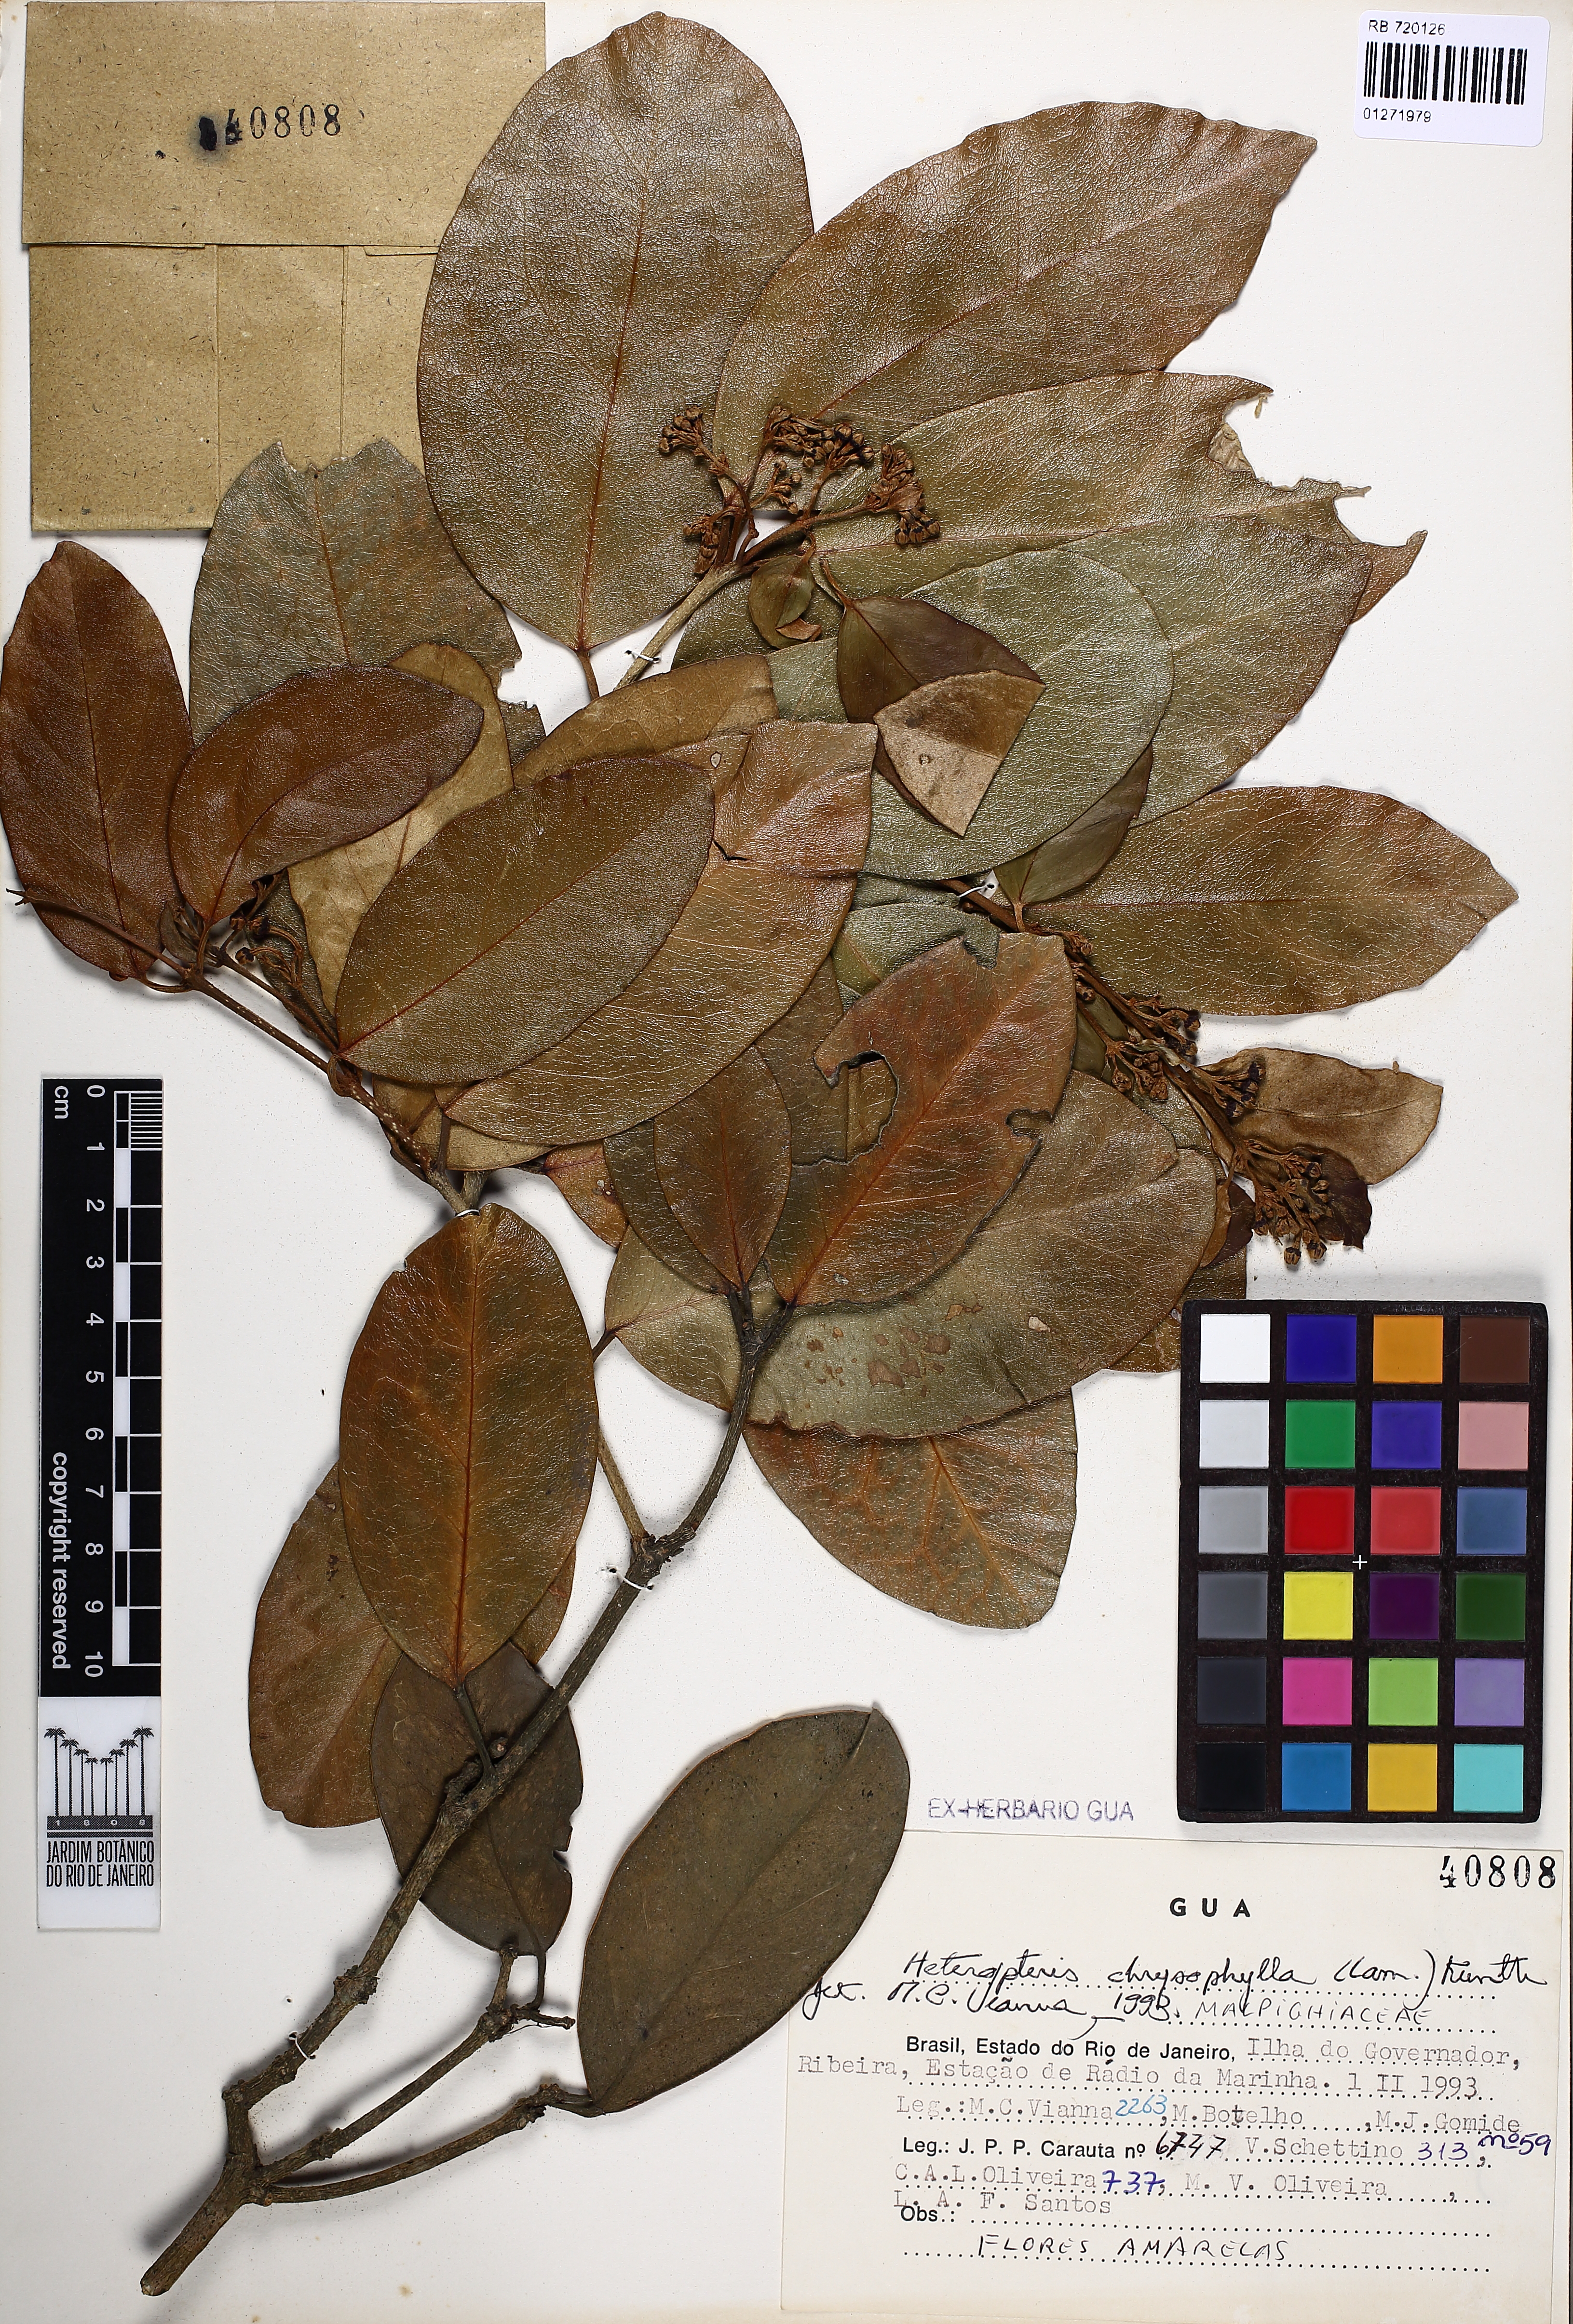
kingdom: Plantae
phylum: Tracheophyta
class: Magnoliopsida
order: Malpighiales
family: Malpighiaceae
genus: Heteropterys
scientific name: Heteropterys chrysophylla
